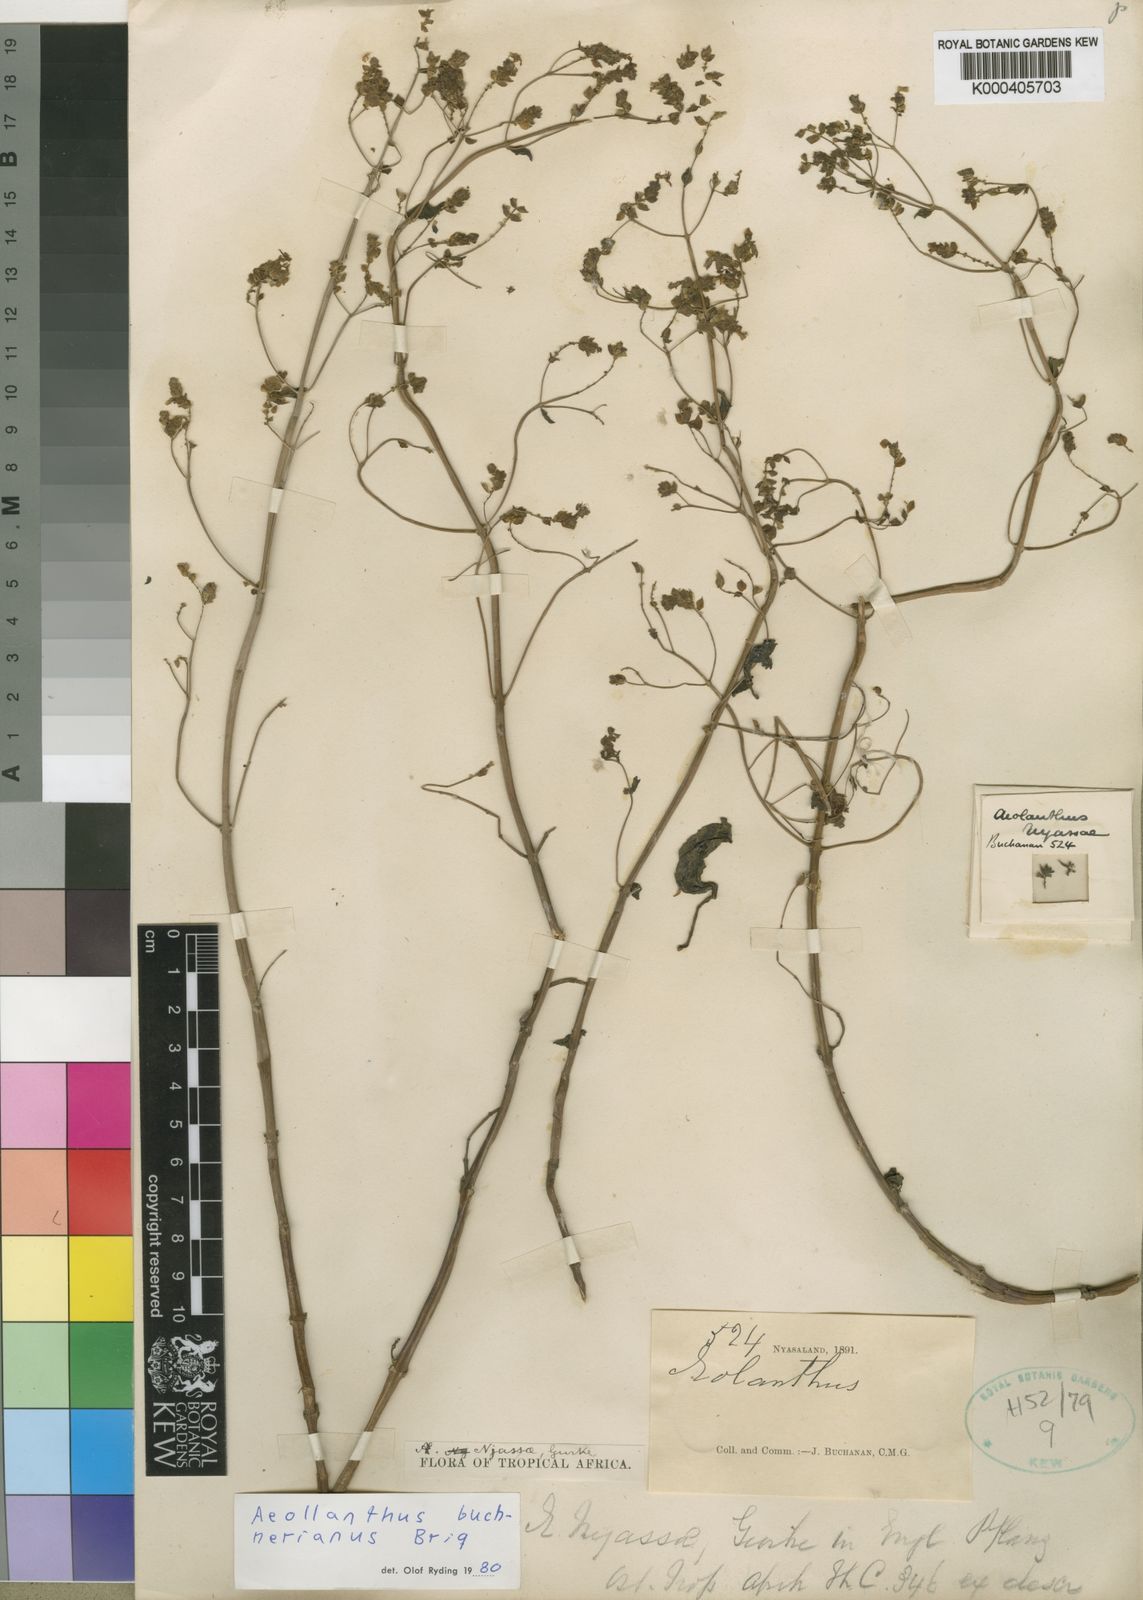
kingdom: Plantae
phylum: Tracheophyta
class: Magnoliopsida
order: Lamiales
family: Lamiaceae
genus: Aeollanthus
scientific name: Aeollanthus buchnerianus
